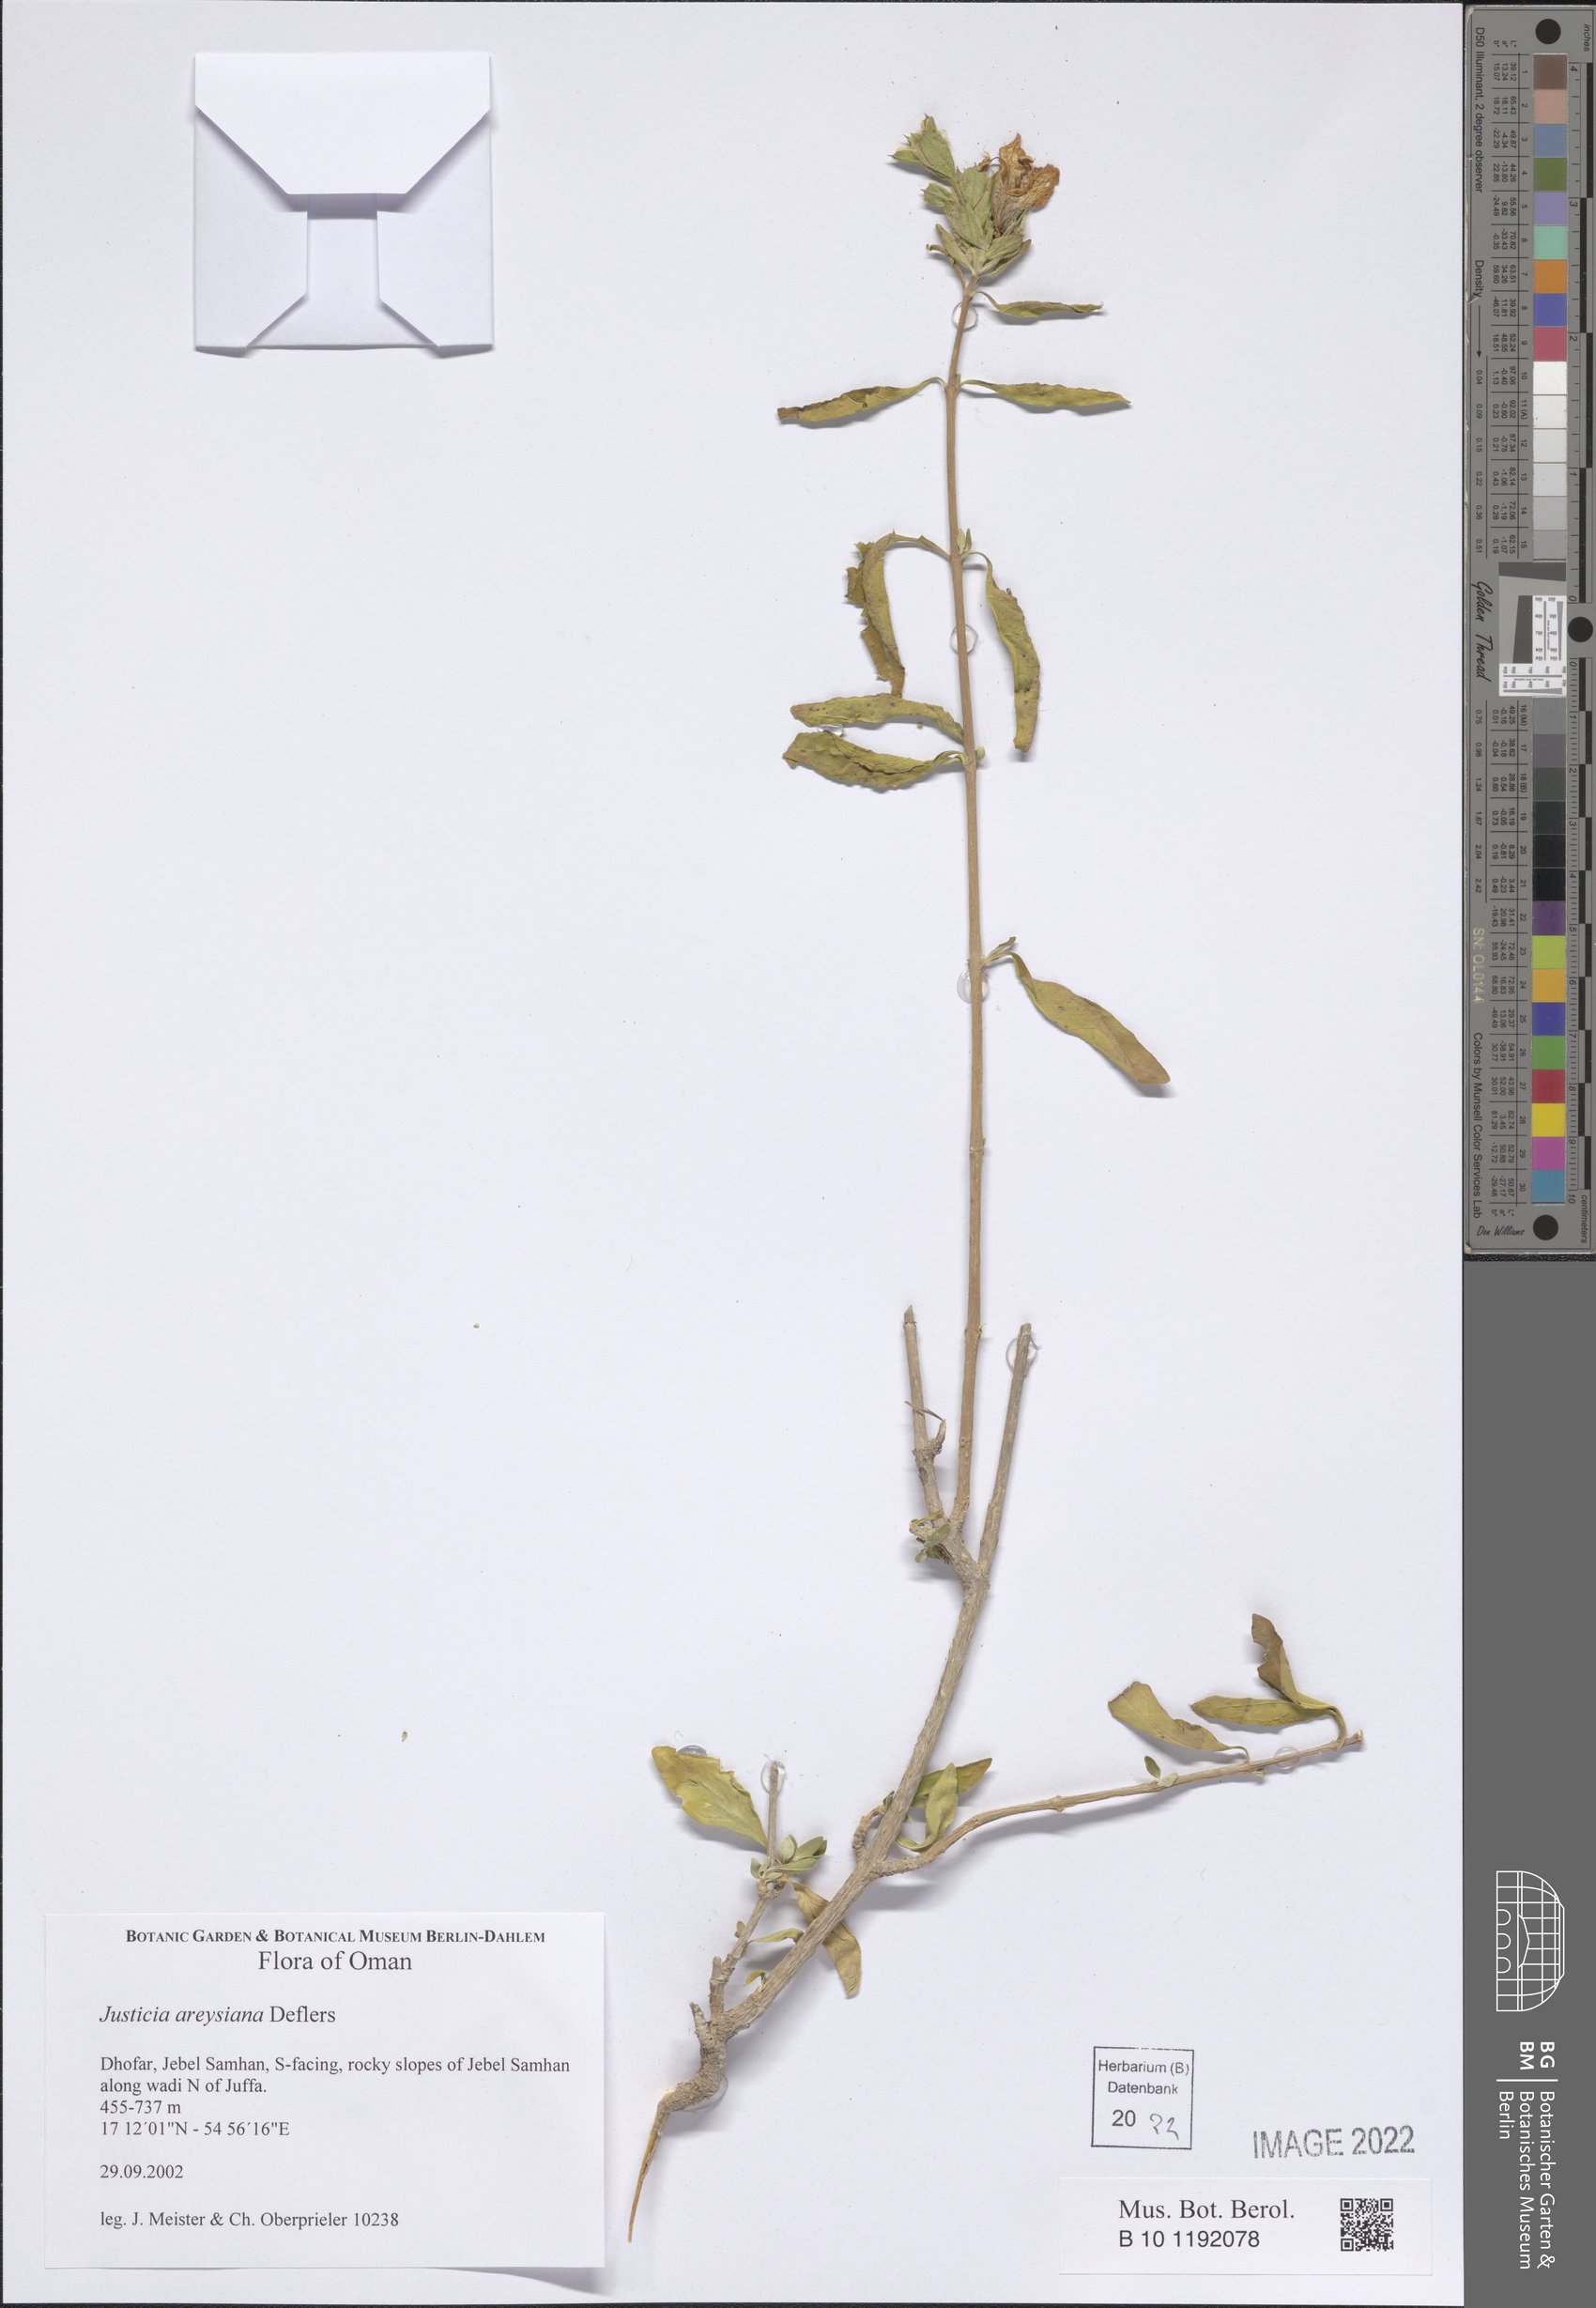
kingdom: Plantae
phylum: Tracheophyta
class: Magnoliopsida
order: Lamiales
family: Acanthaceae
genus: Justicia
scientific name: Justicia areysiana
